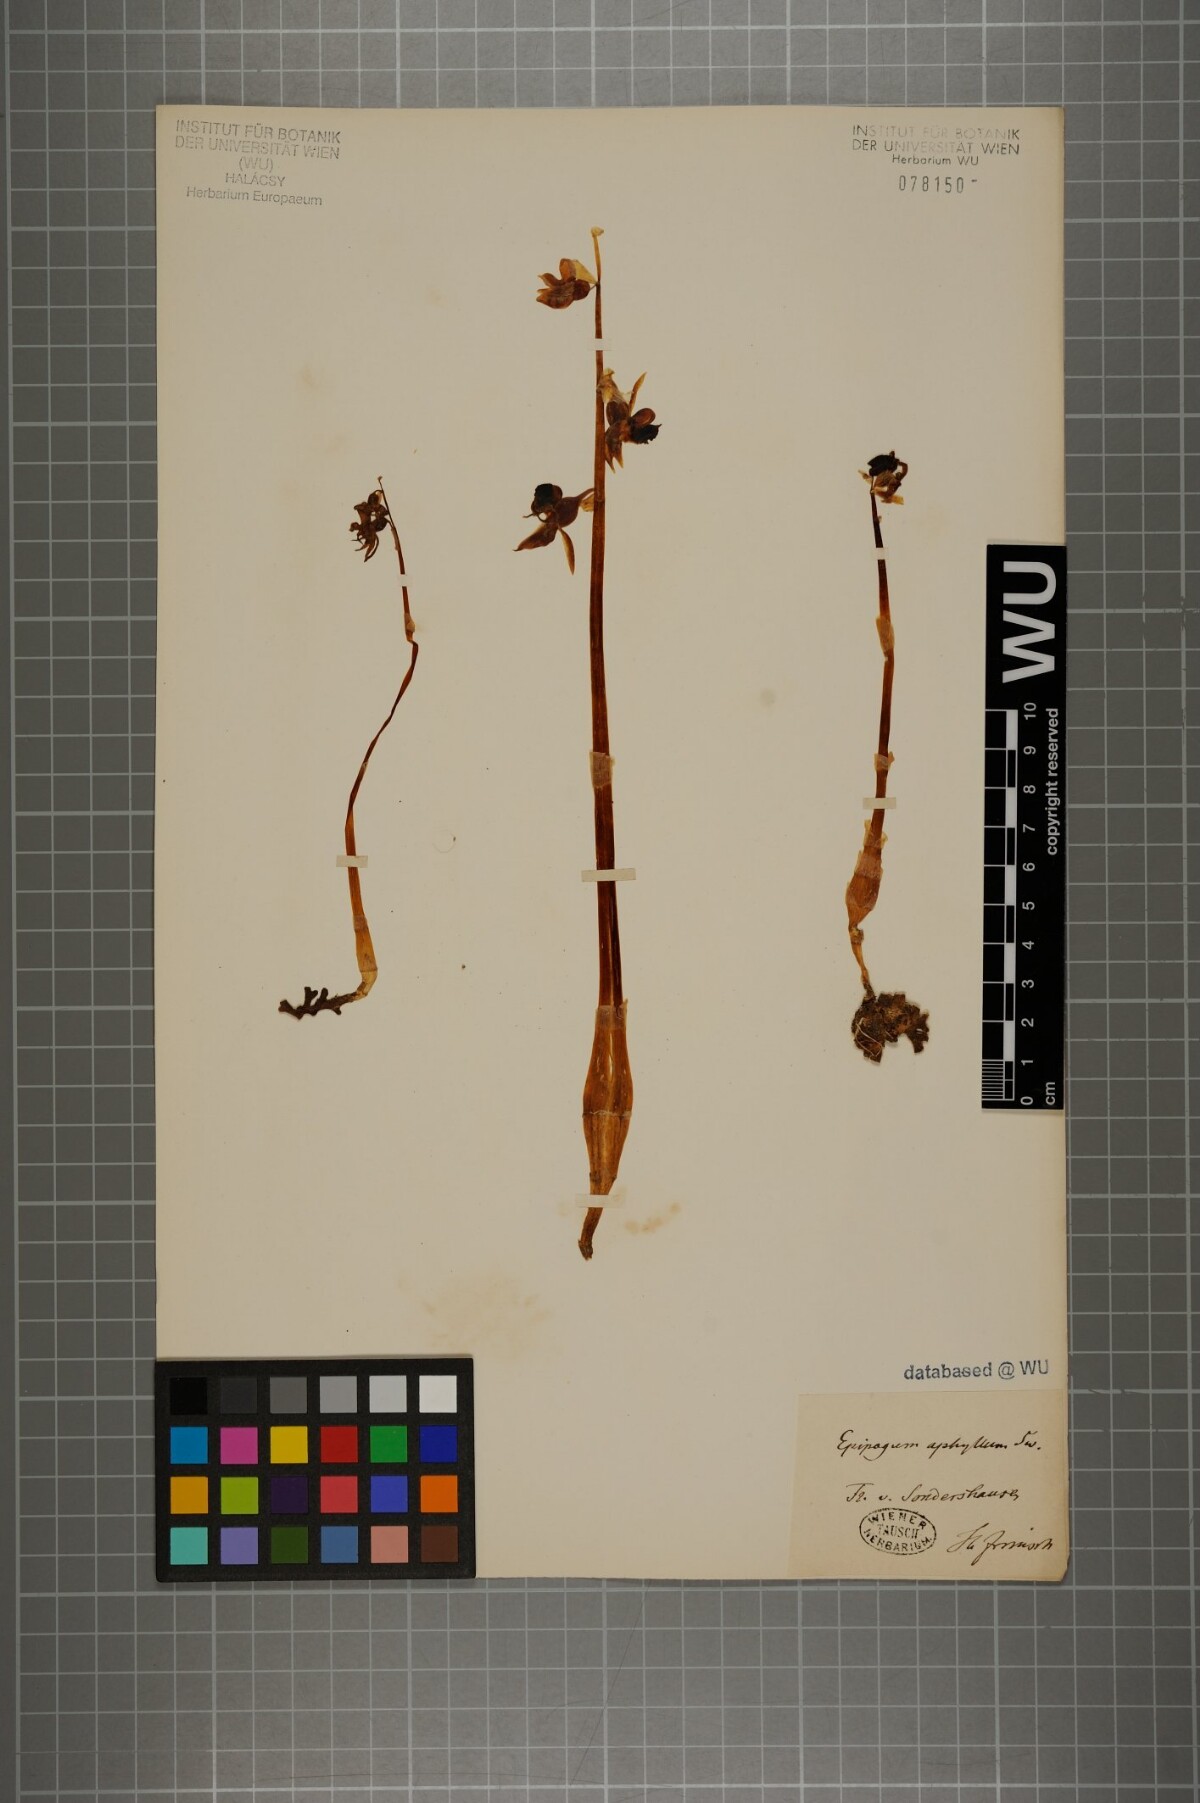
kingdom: Plantae
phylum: Tracheophyta
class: Liliopsida
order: Asparagales
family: Orchidaceae
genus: Epipogium
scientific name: Epipogium aphyllum
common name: Ghost orchid
